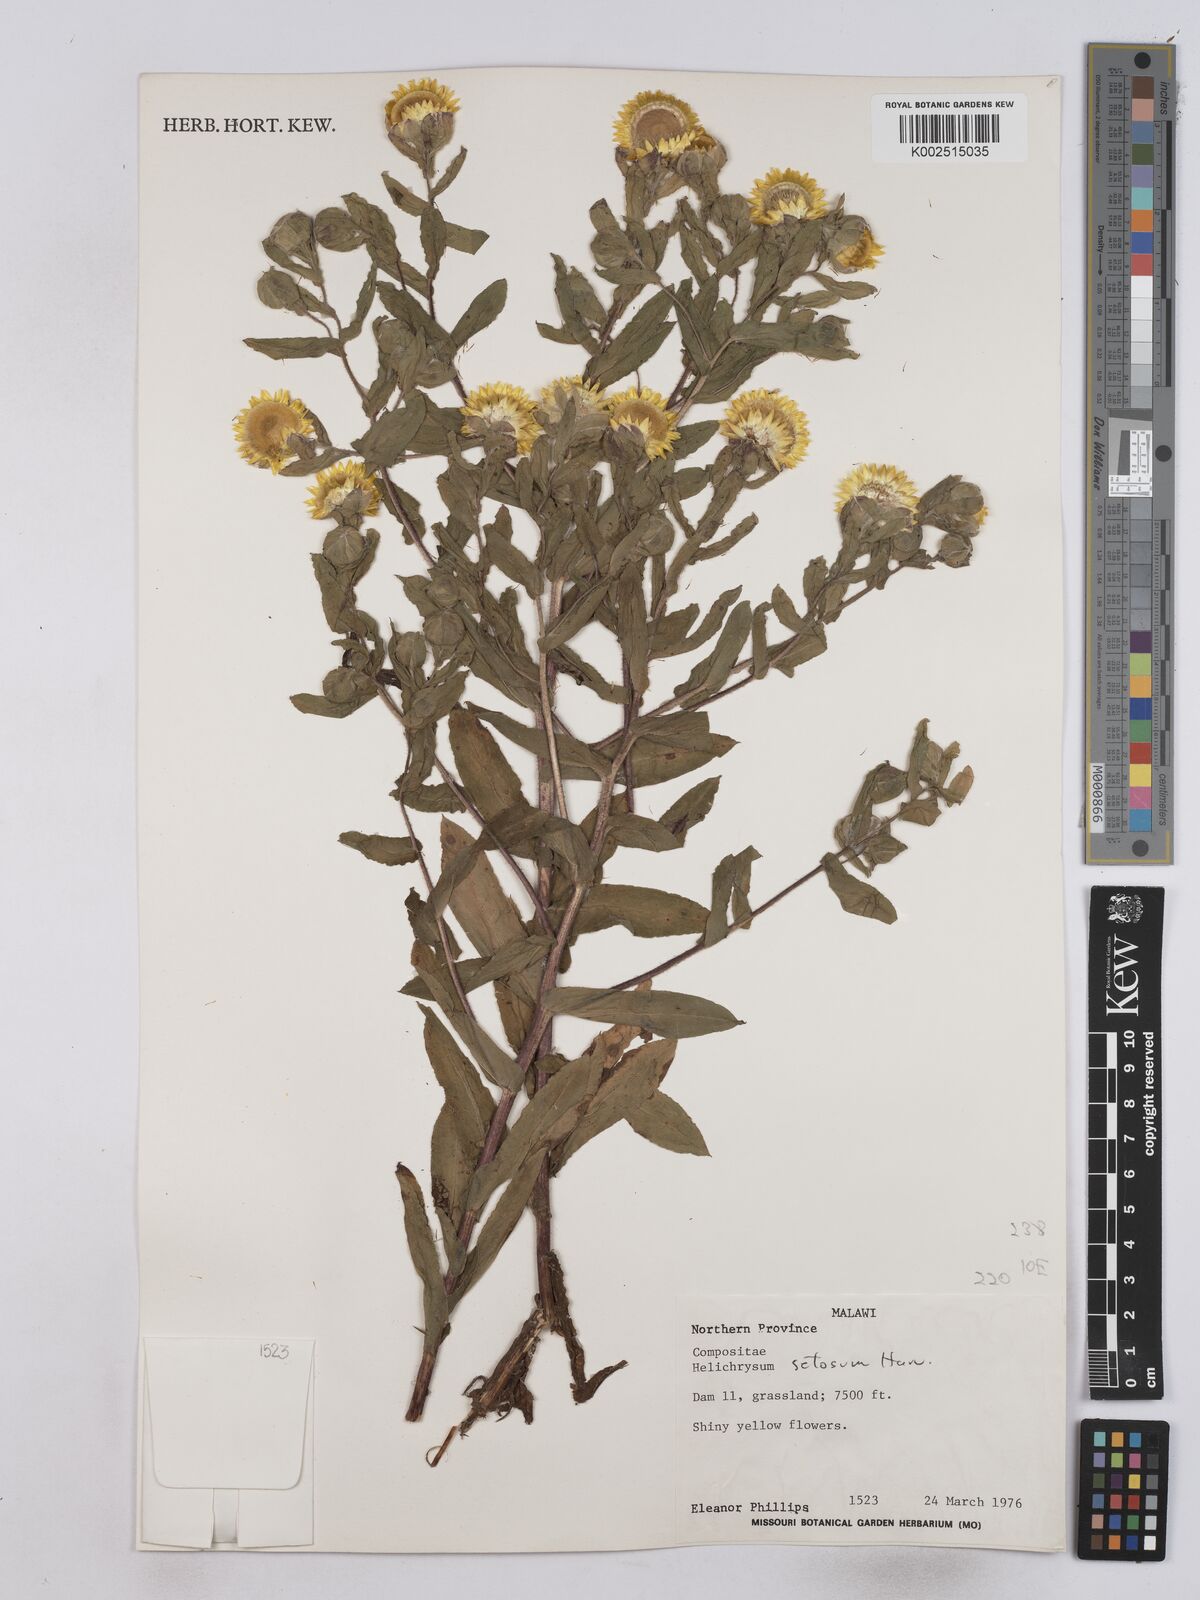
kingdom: Plantae
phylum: Tracheophyta
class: Magnoliopsida
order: Asterales
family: Asteraceae
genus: Helichrysum
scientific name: Helichrysum setosum
